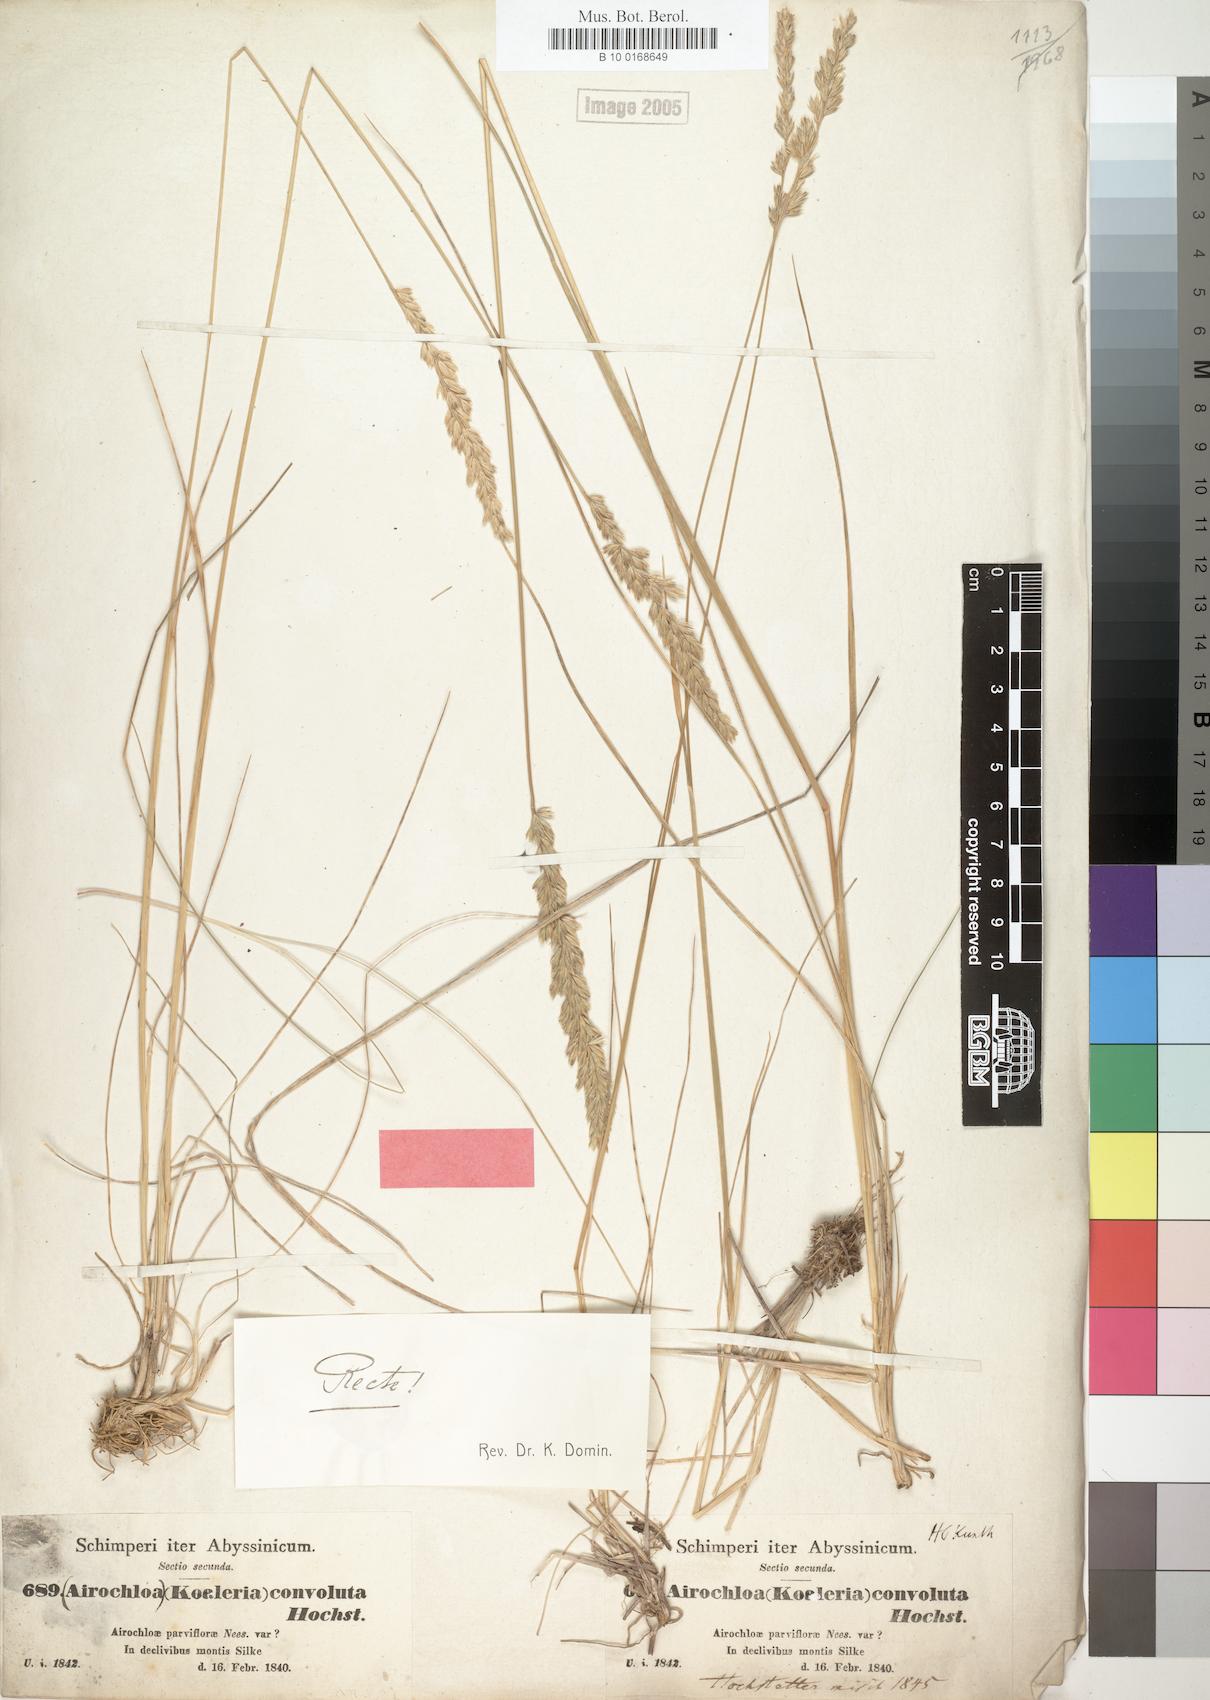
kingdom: Plantae
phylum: Tracheophyta
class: Liliopsida
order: Poales
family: Poaceae
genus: Koeleria
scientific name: Koeleria capensis
